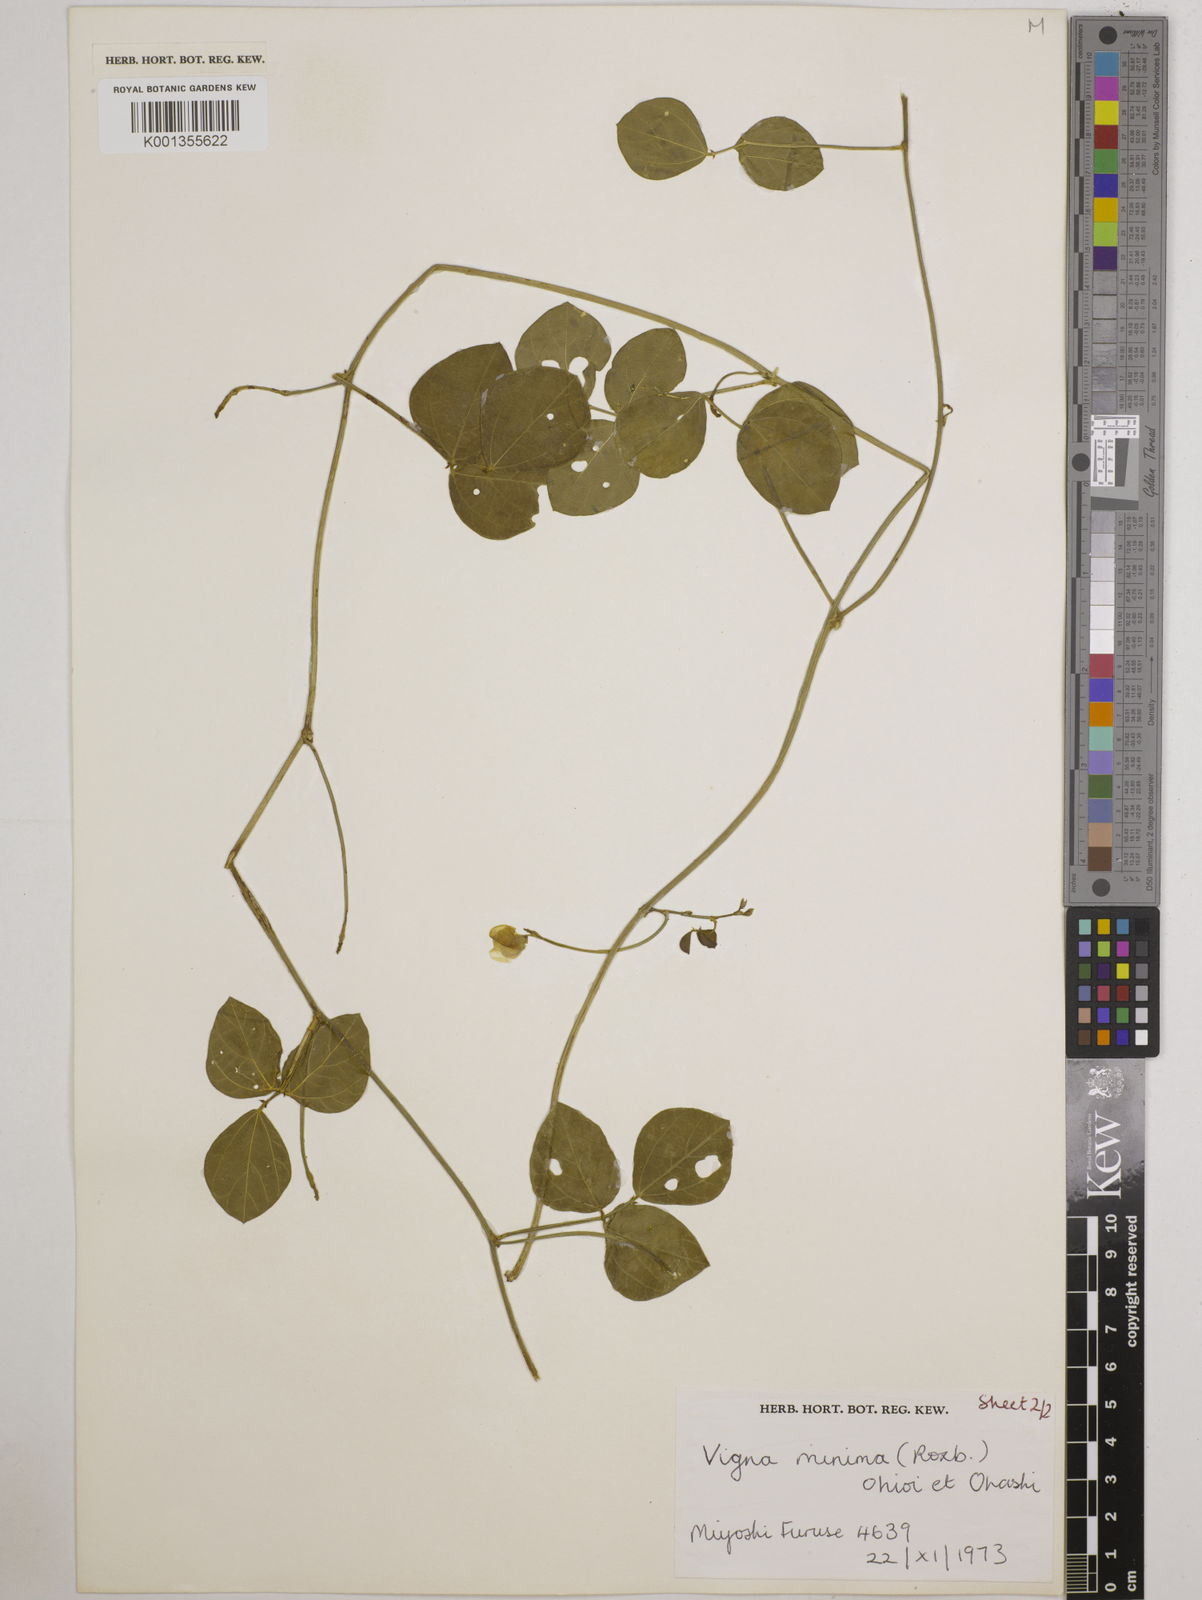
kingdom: Plantae
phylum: Tracheophyta
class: Magnoliopsida
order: Fabales
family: Fabaceae
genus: Vigna
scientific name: Vigna minima
